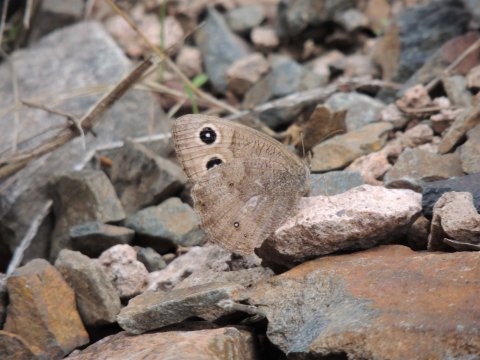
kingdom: Animalia
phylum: Arthropoda
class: Insecta
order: Lepidoptera
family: Nymphalidae
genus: Cercyonis
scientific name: Cercyonis pegala
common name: Common Wood-Nymph
